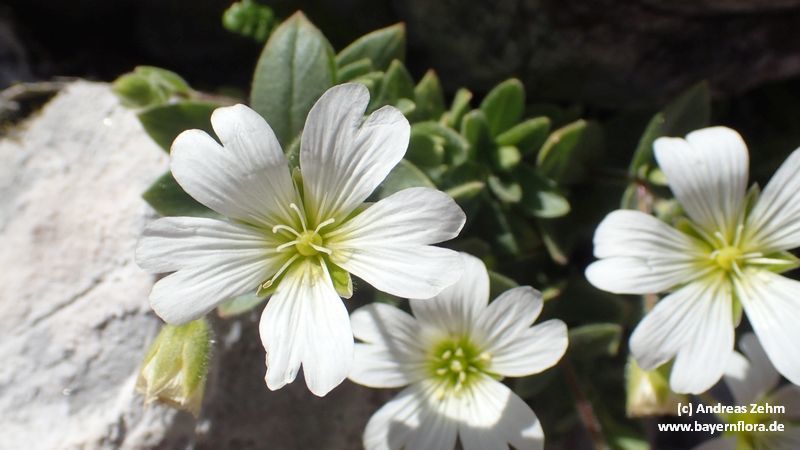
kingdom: Plantae
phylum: Tracheophyta
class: Magnoliopsida
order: Caryophyllales
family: Caryophyllaceae
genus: Cerastium
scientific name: Cerastium latifolium
